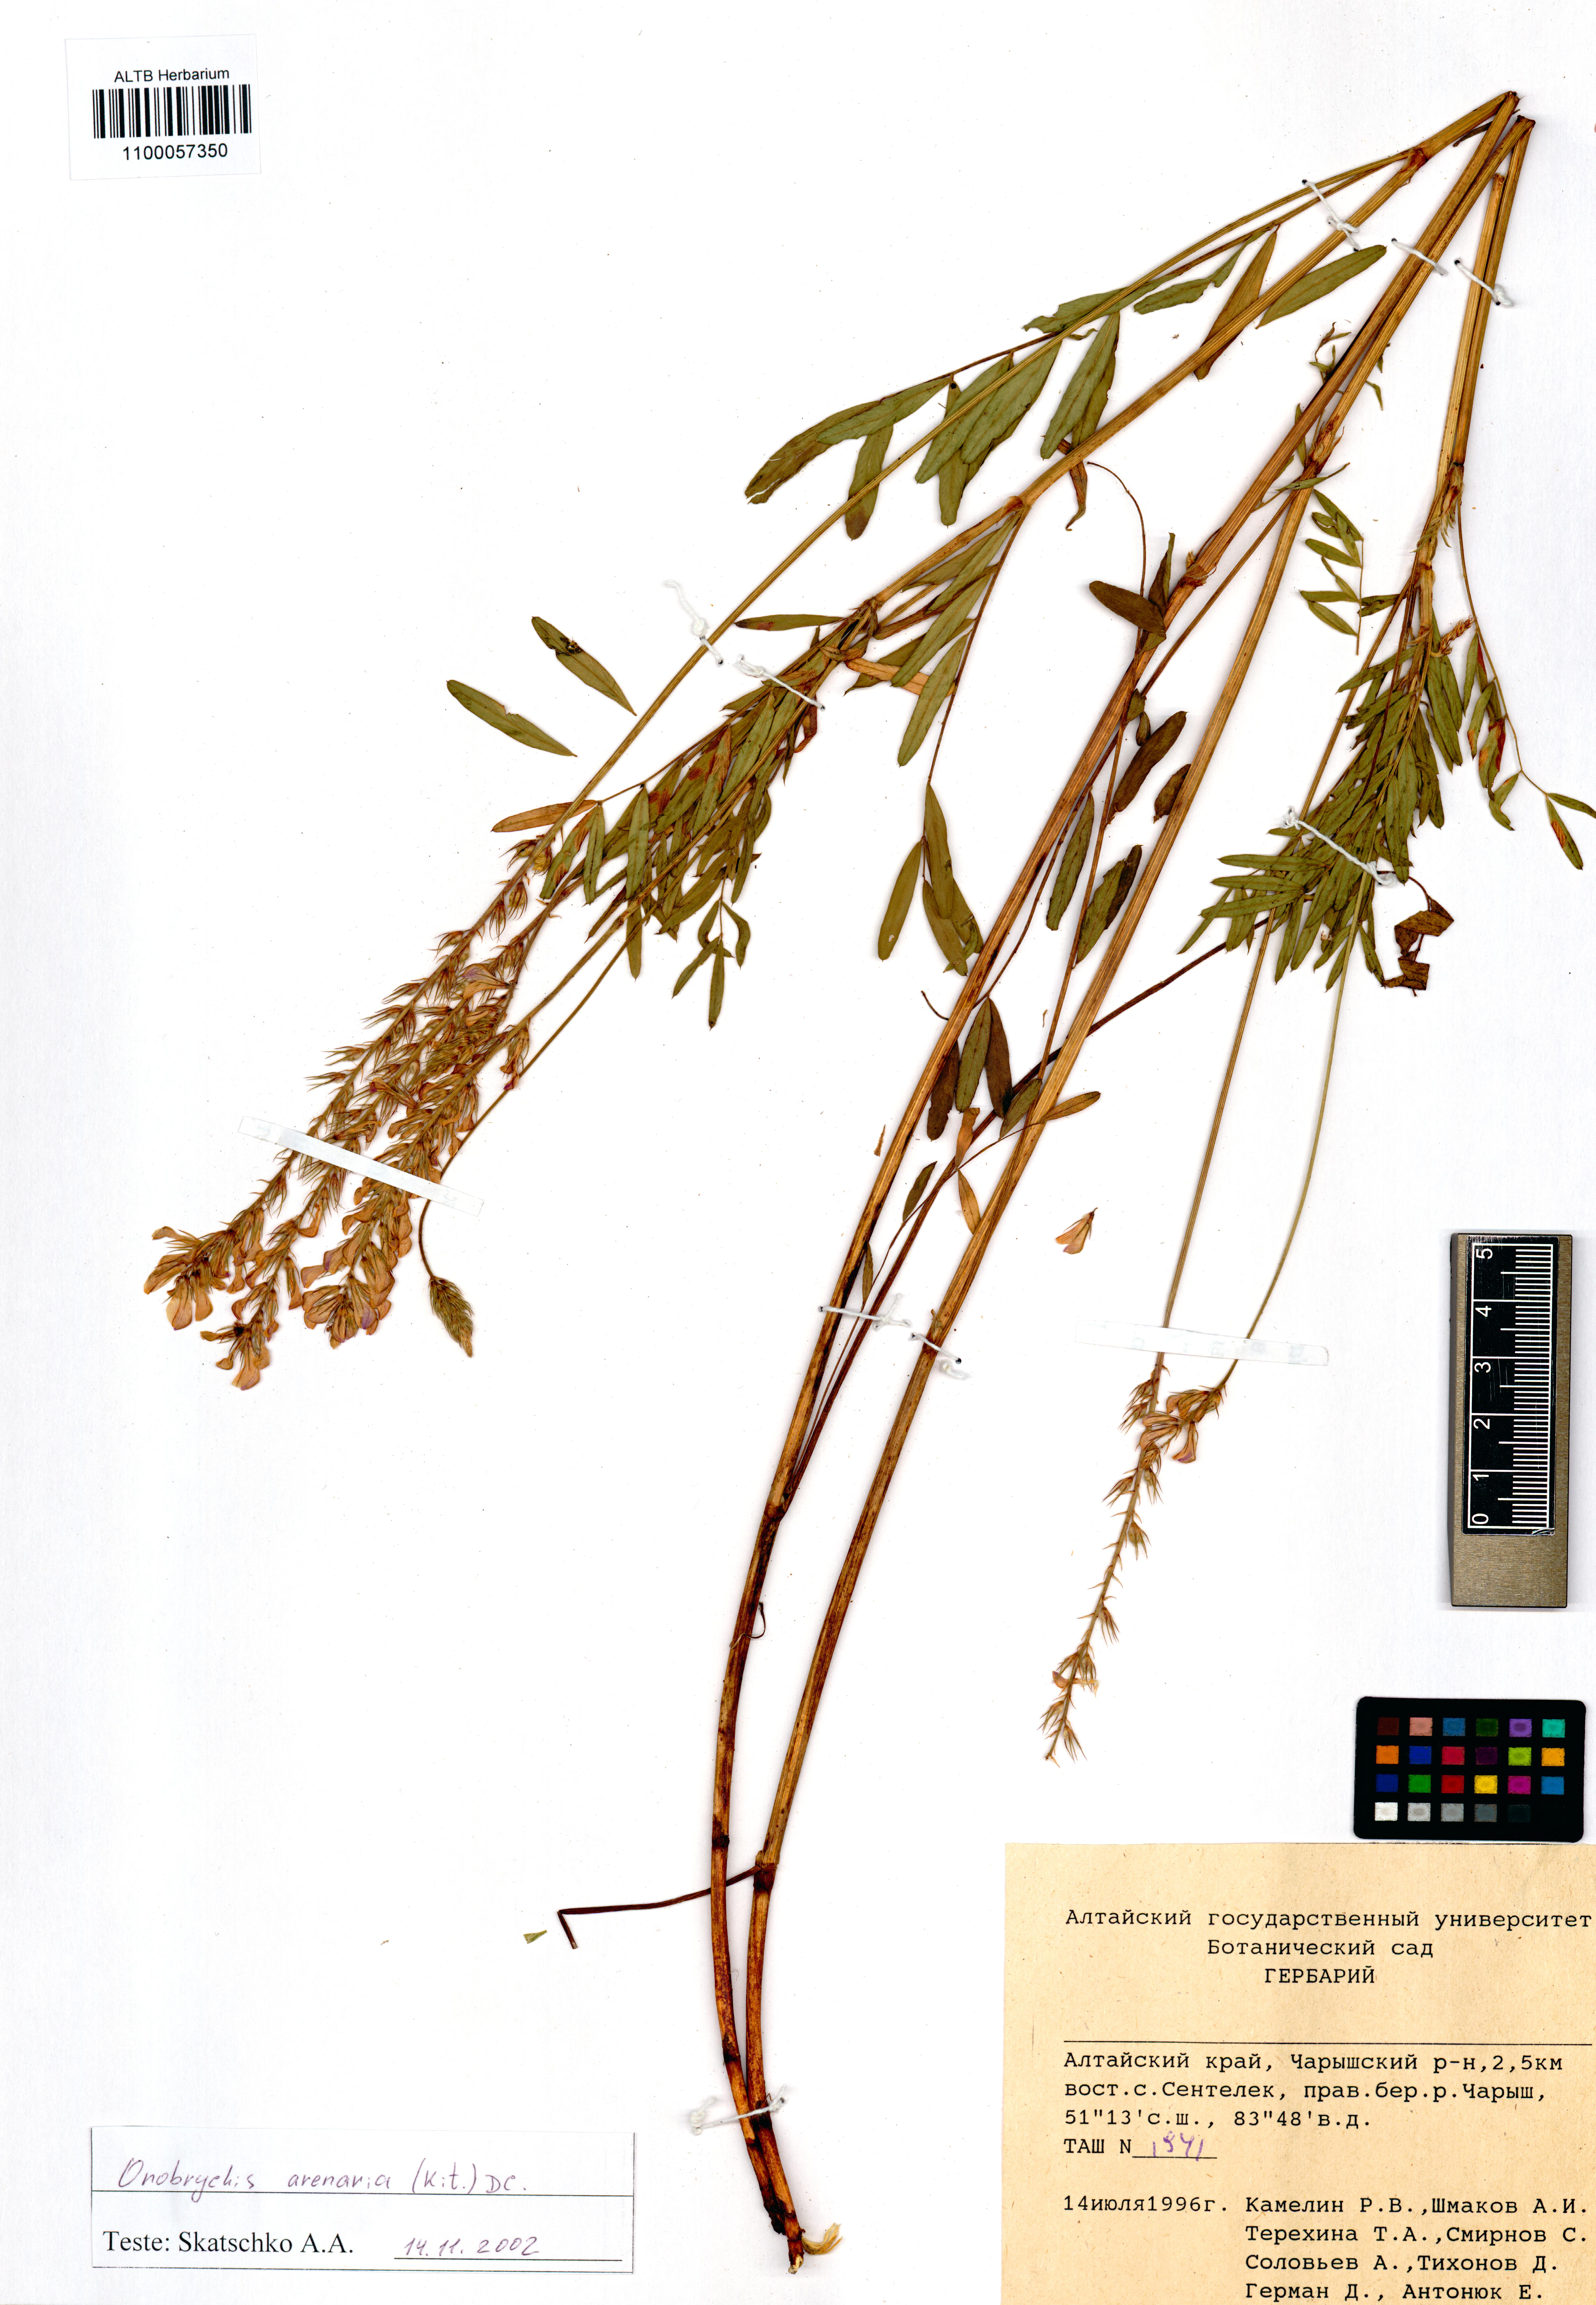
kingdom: Plantae
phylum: Tracheophyta
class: Magnoliopsida
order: Fabales
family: Fabaceae
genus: Onobrychis
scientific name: Onobrychis arenaria
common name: Sand esparcet
